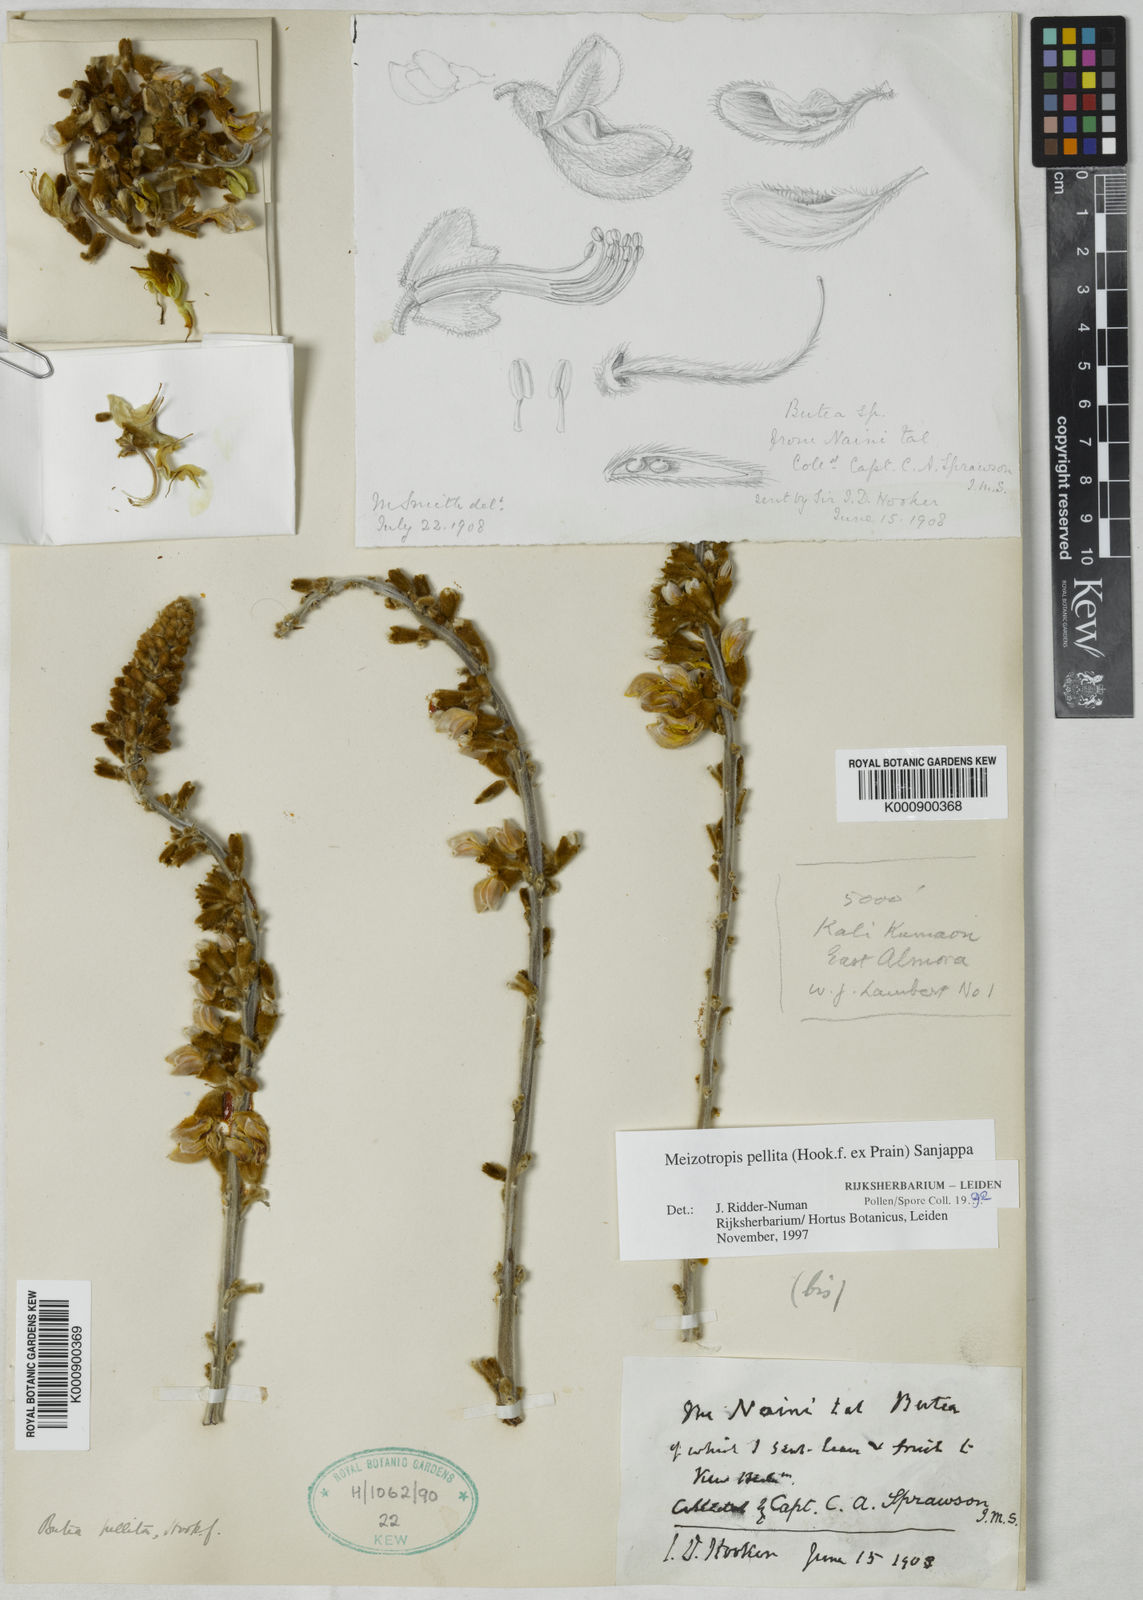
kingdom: Plantae
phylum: Tracheophyta
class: Magnoliopsida
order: Fabales
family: Fabaceae
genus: Paracalyx
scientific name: Paracalyx
